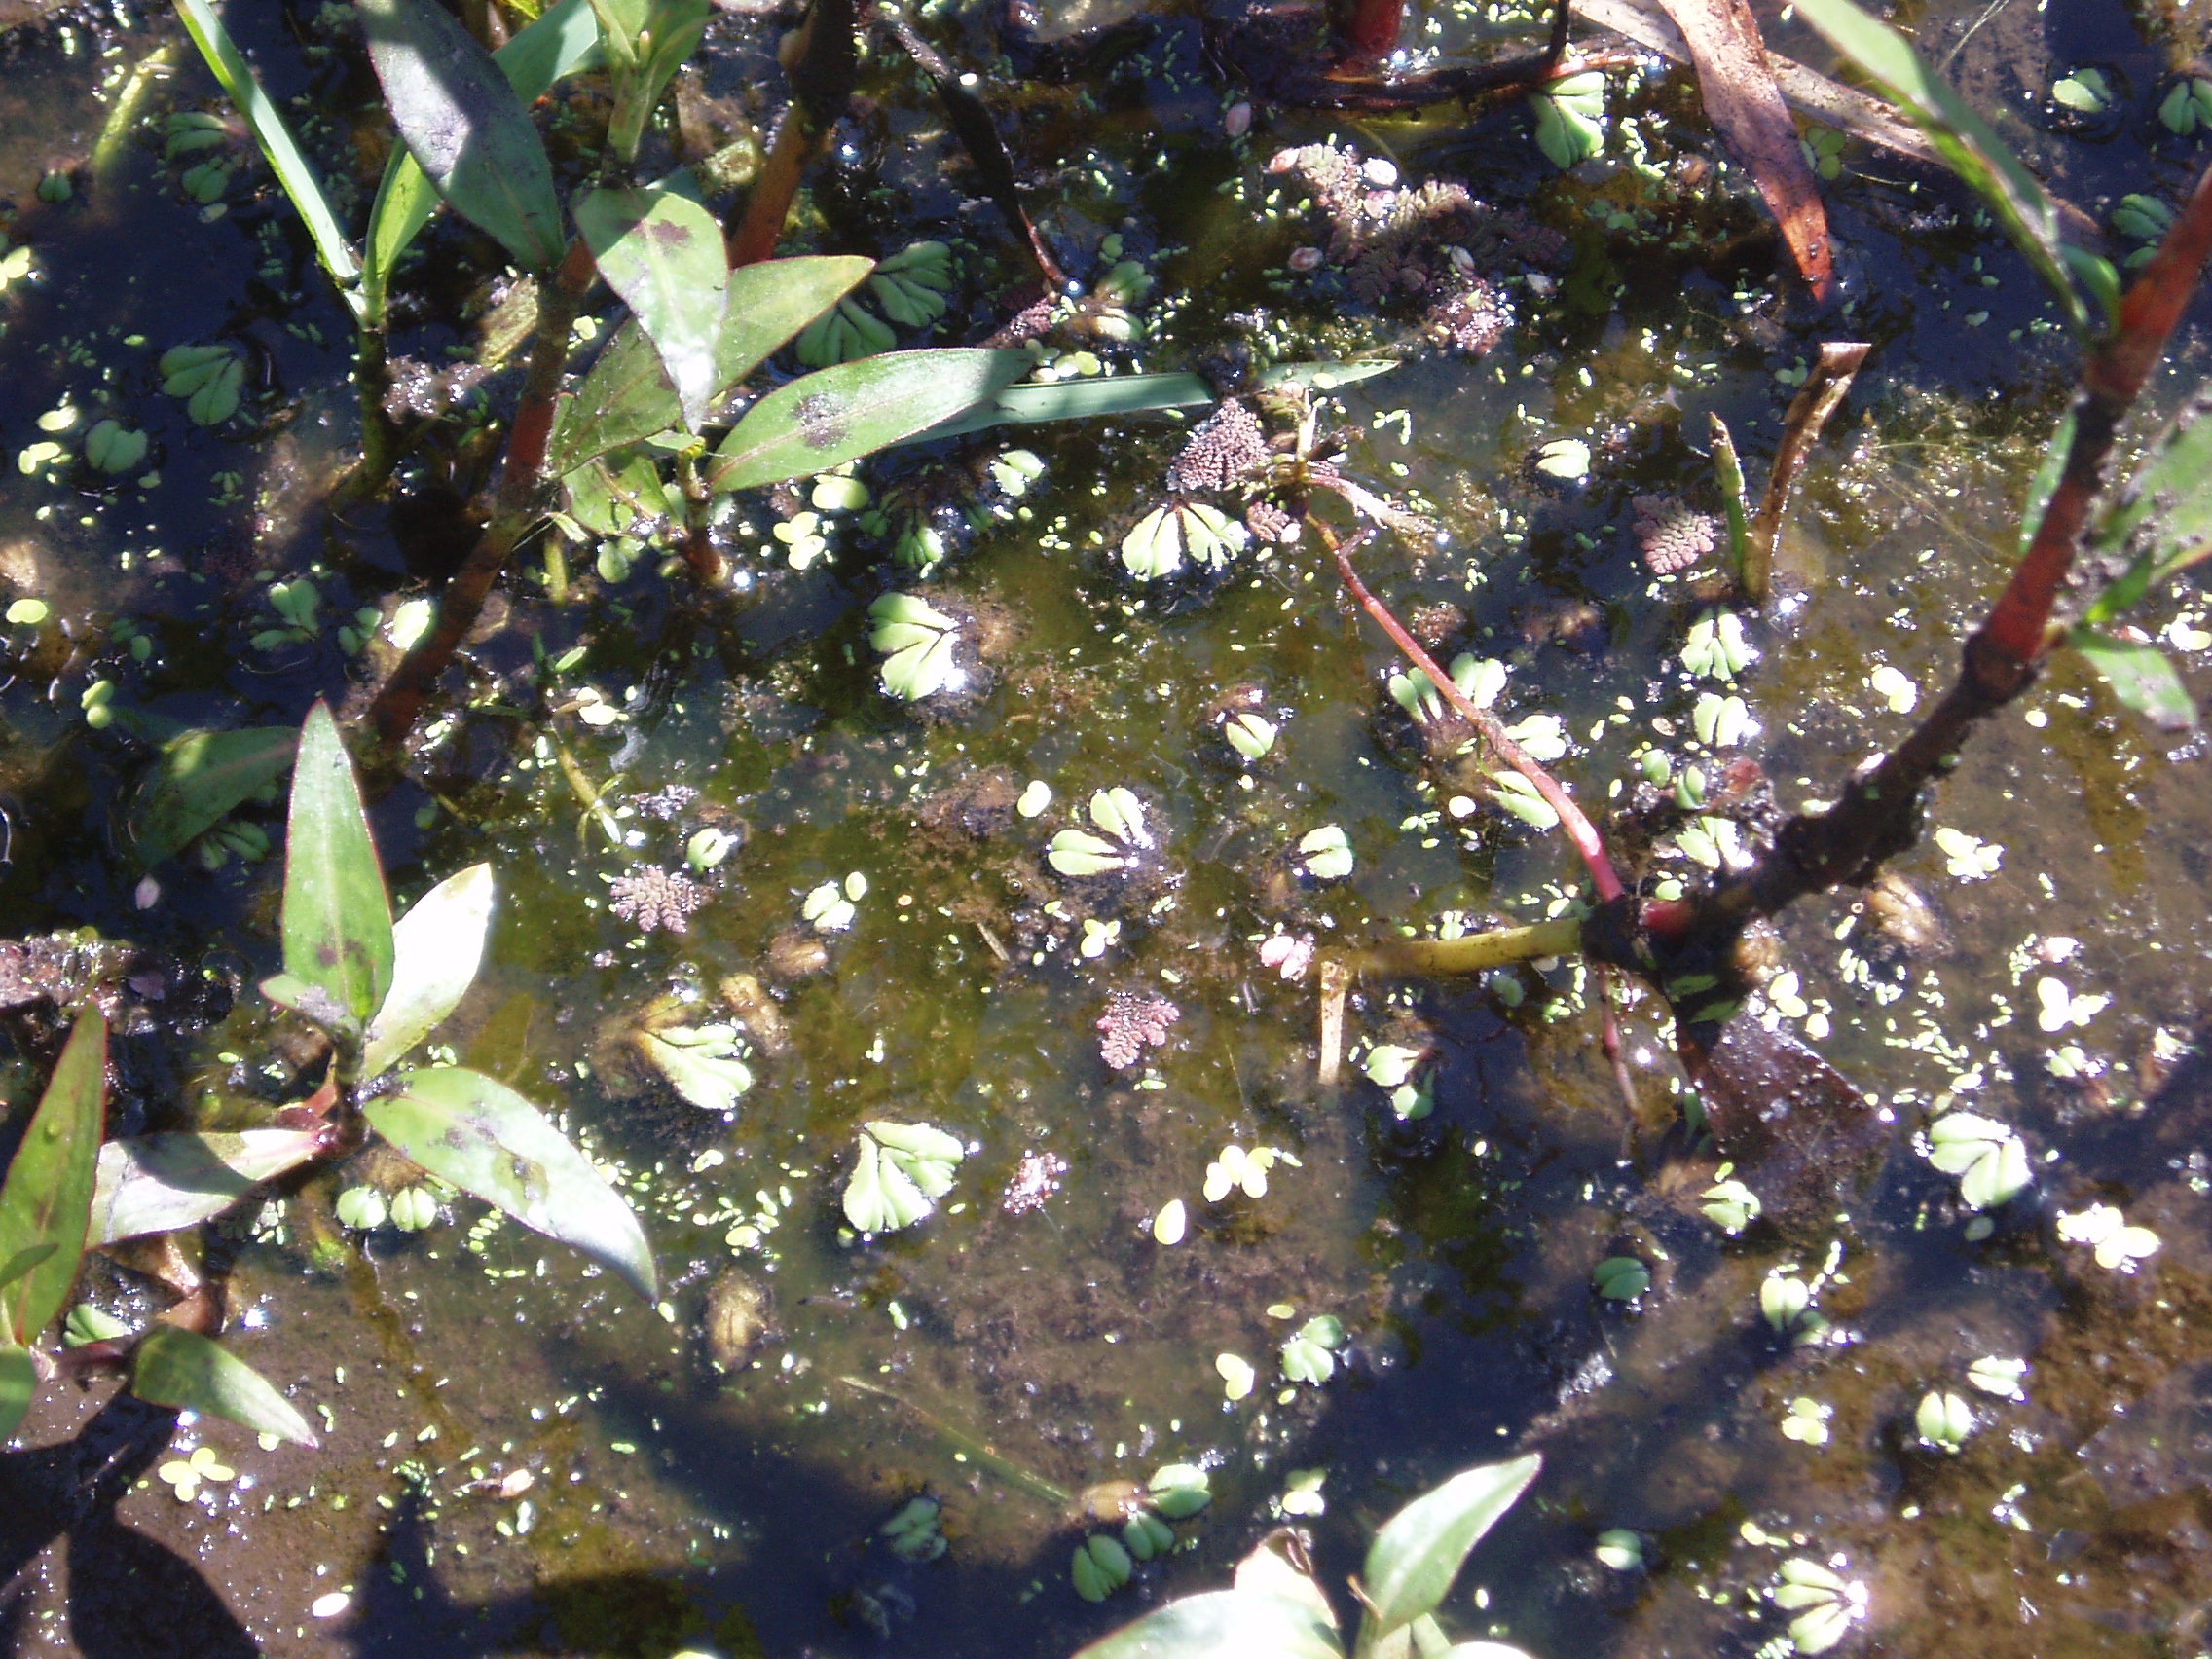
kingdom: Plantae
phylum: Tracheophyta
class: Liliopsida
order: Alismatales
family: Araceae
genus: Wolffia
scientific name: Wolffia australiana
